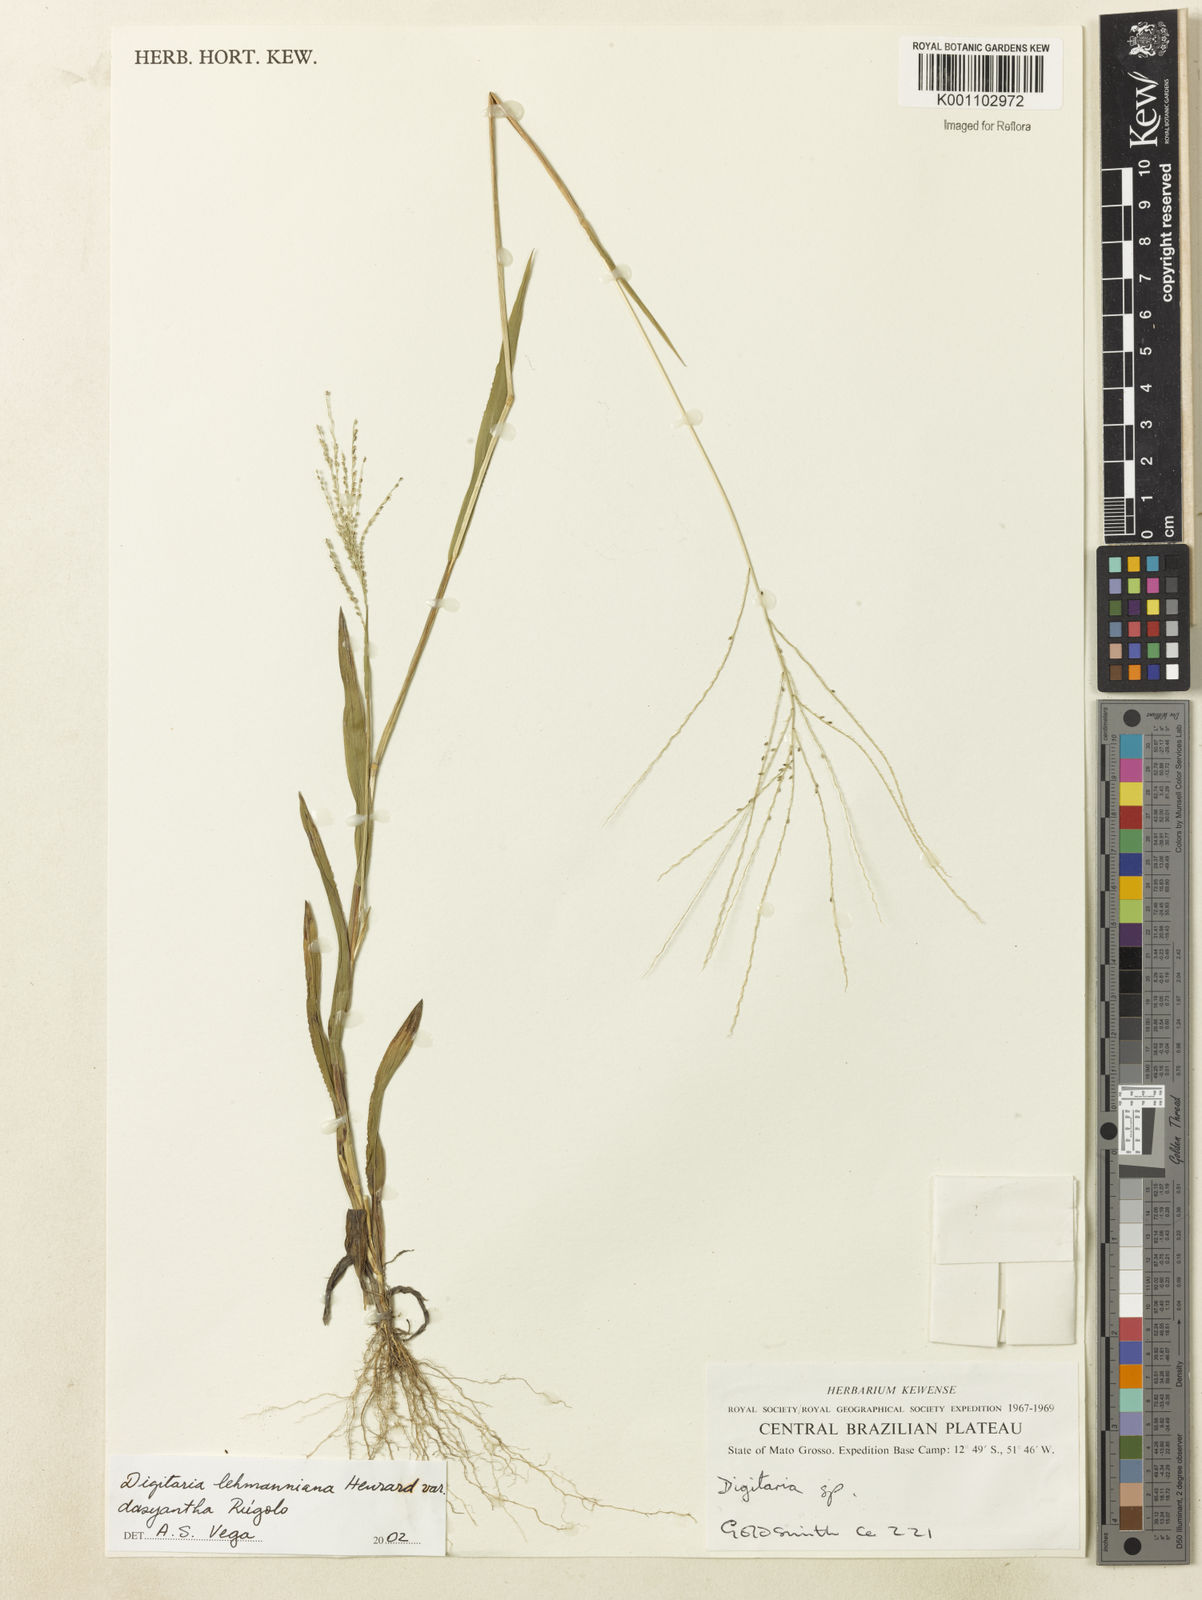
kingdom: Plantae
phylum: Tracheophyta
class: Liliopsida
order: Poales
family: Poaceae
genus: Digitaria
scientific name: Digitaria lehmanniana
